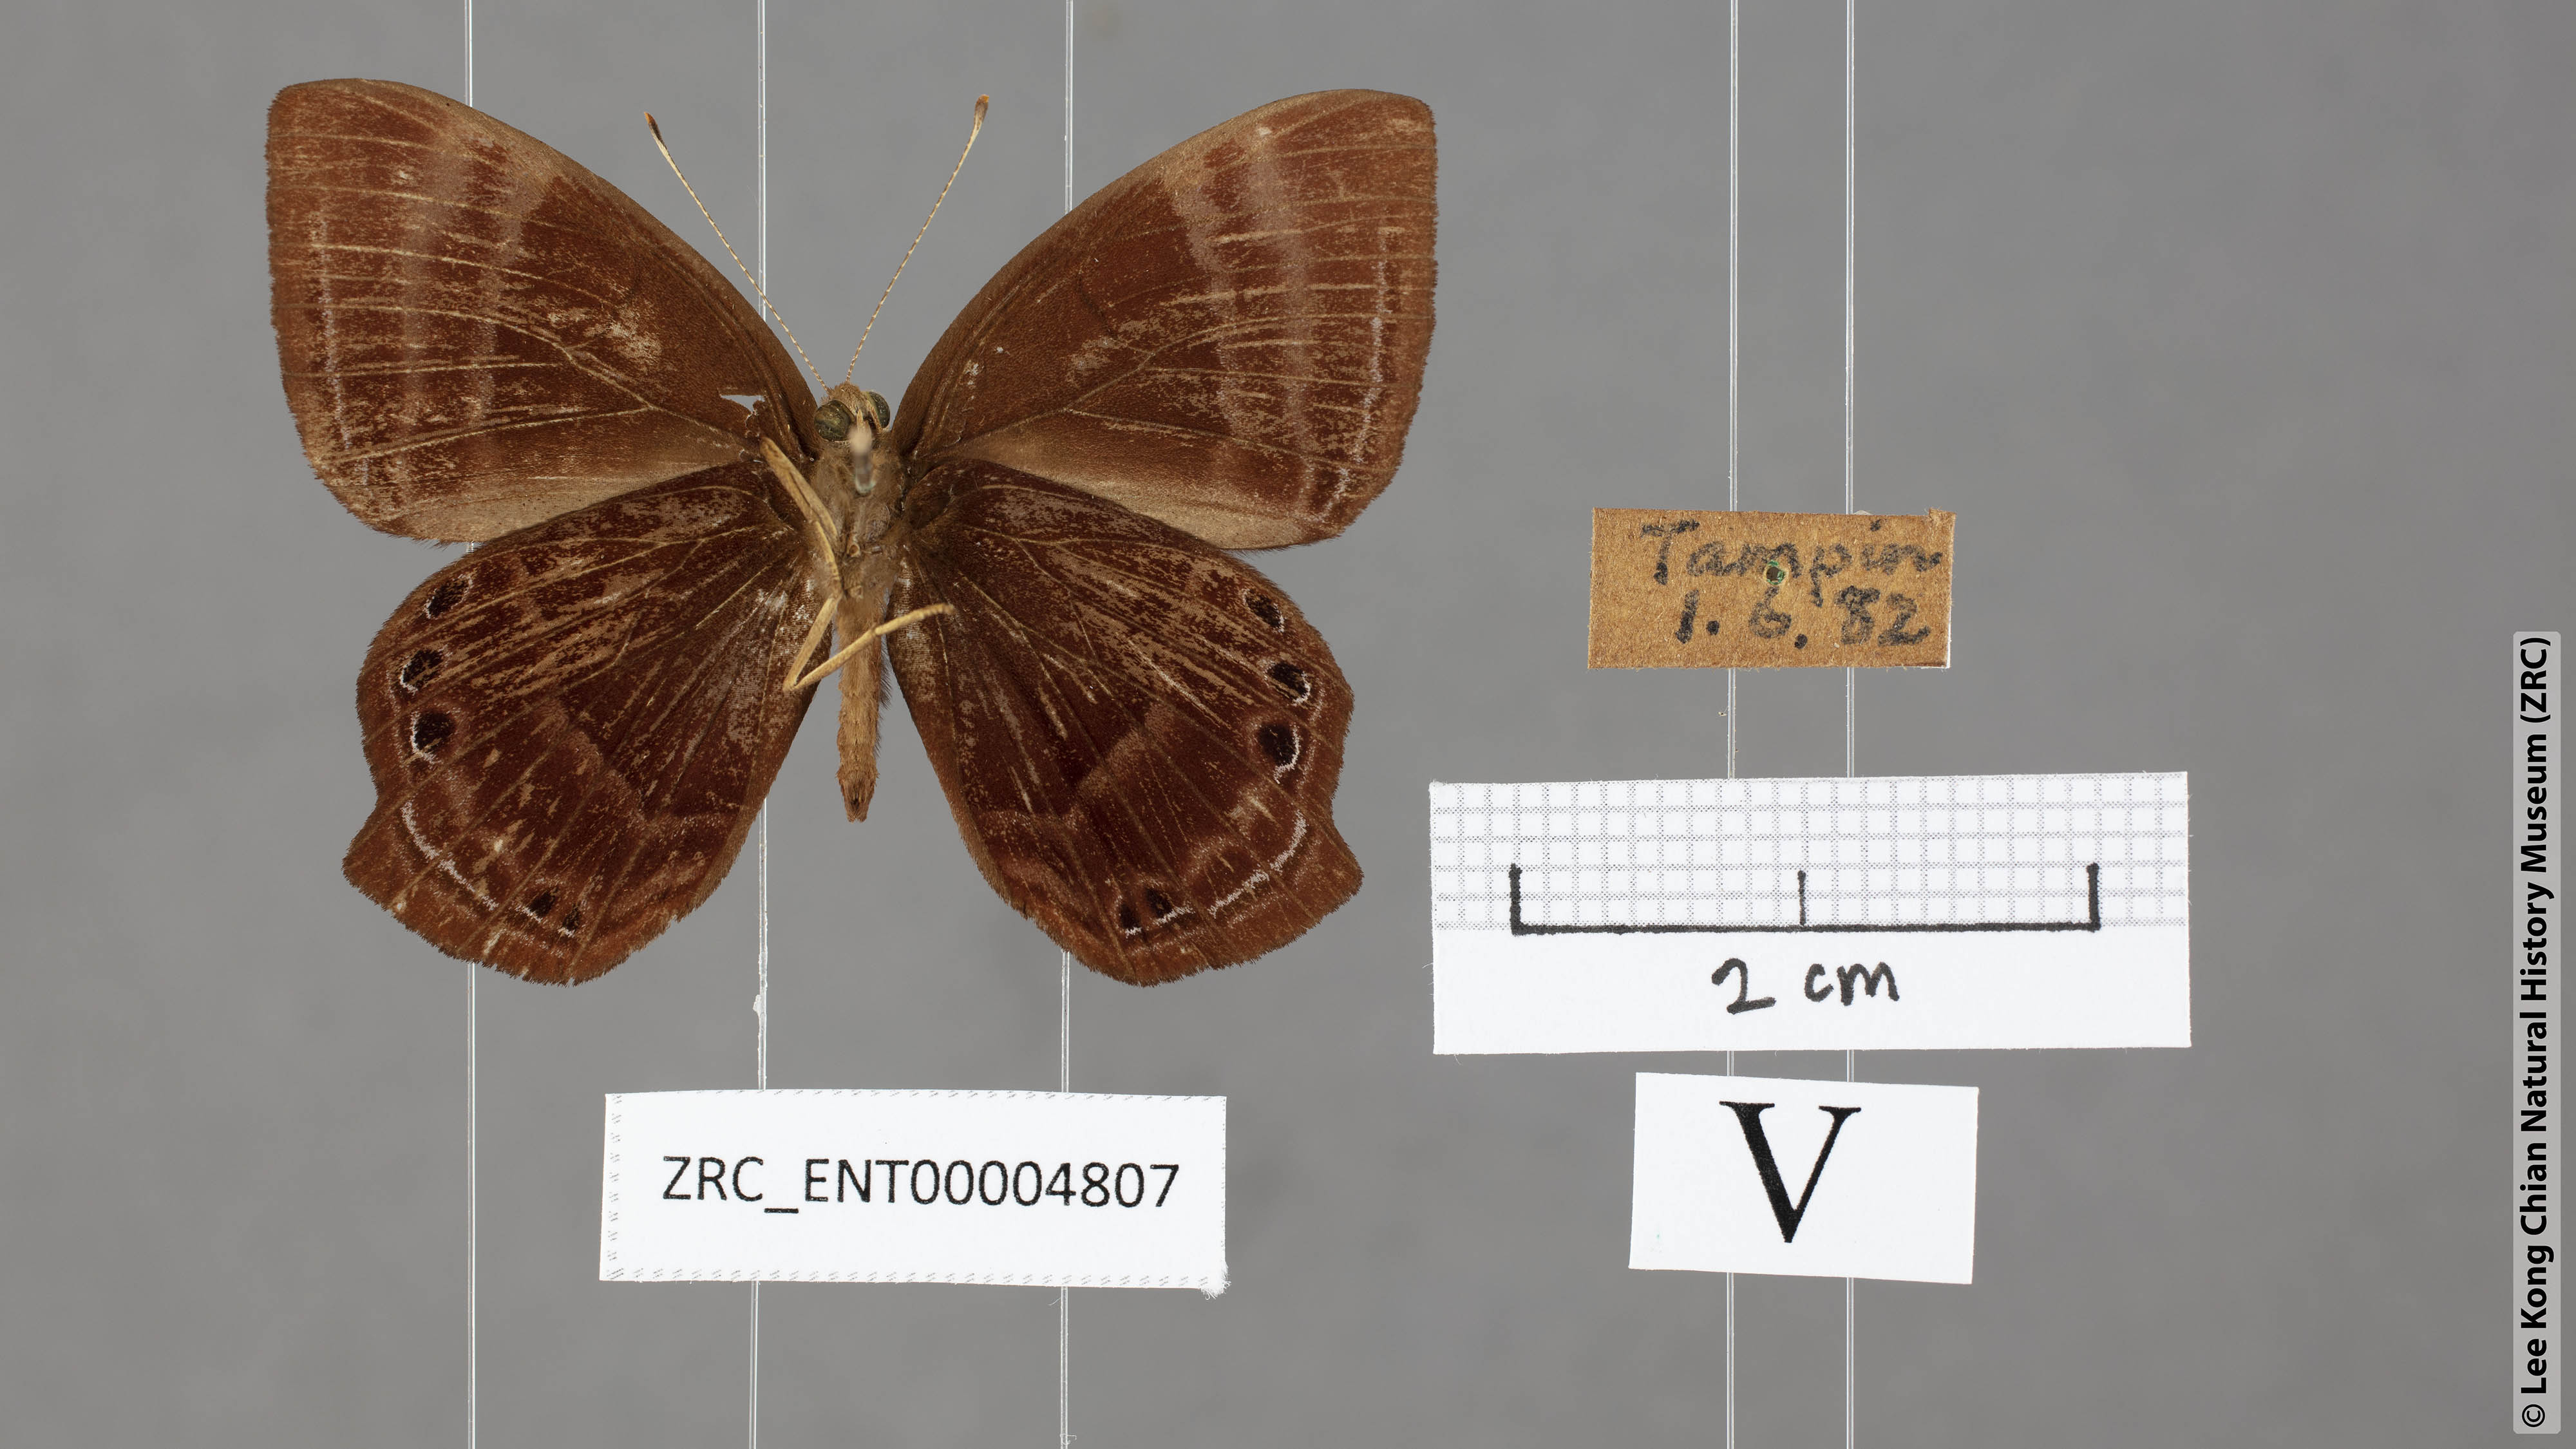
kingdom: Animalia
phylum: Arthropoda
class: Insecta
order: Lepidoptera
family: Lycaenidae
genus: Abisara
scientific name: Abisara saturata
